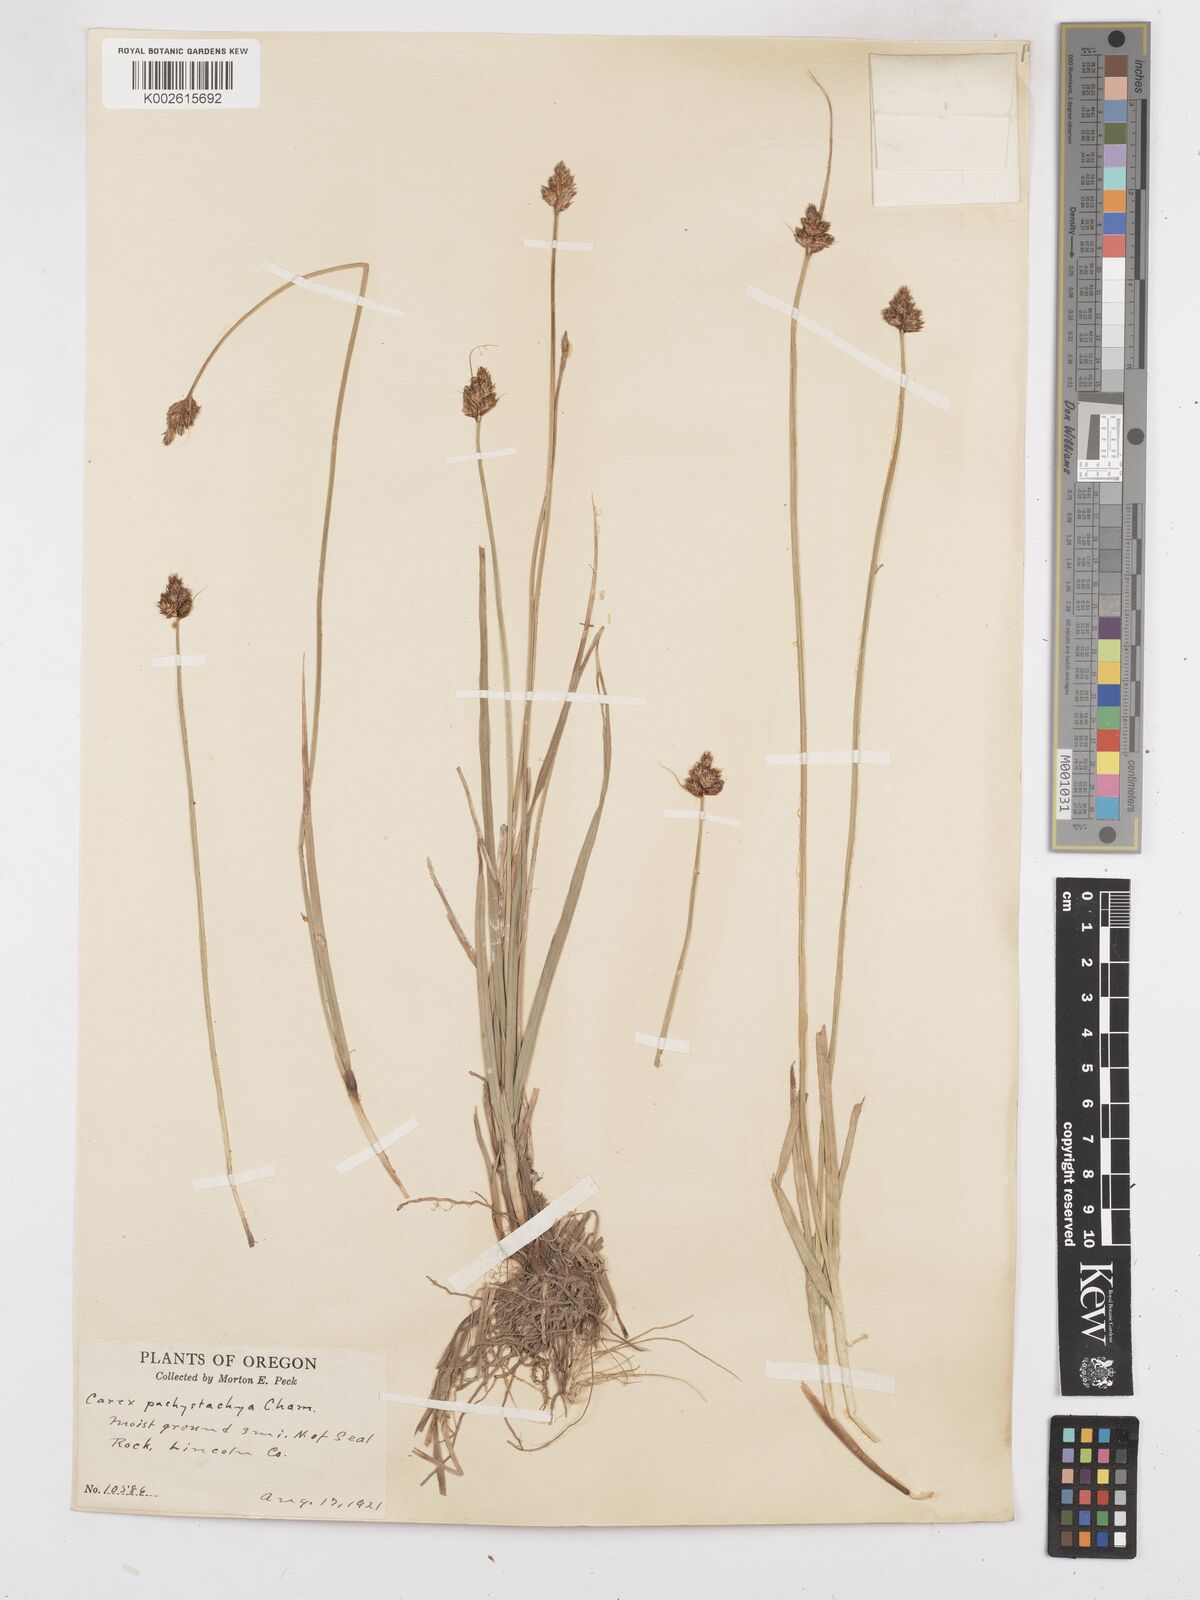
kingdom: Plantae
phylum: Tracheophyta
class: Liliopsida
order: Poales
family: Cyperaceae
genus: Carex
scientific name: Carex pachystachya
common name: Chamisso's sedge
